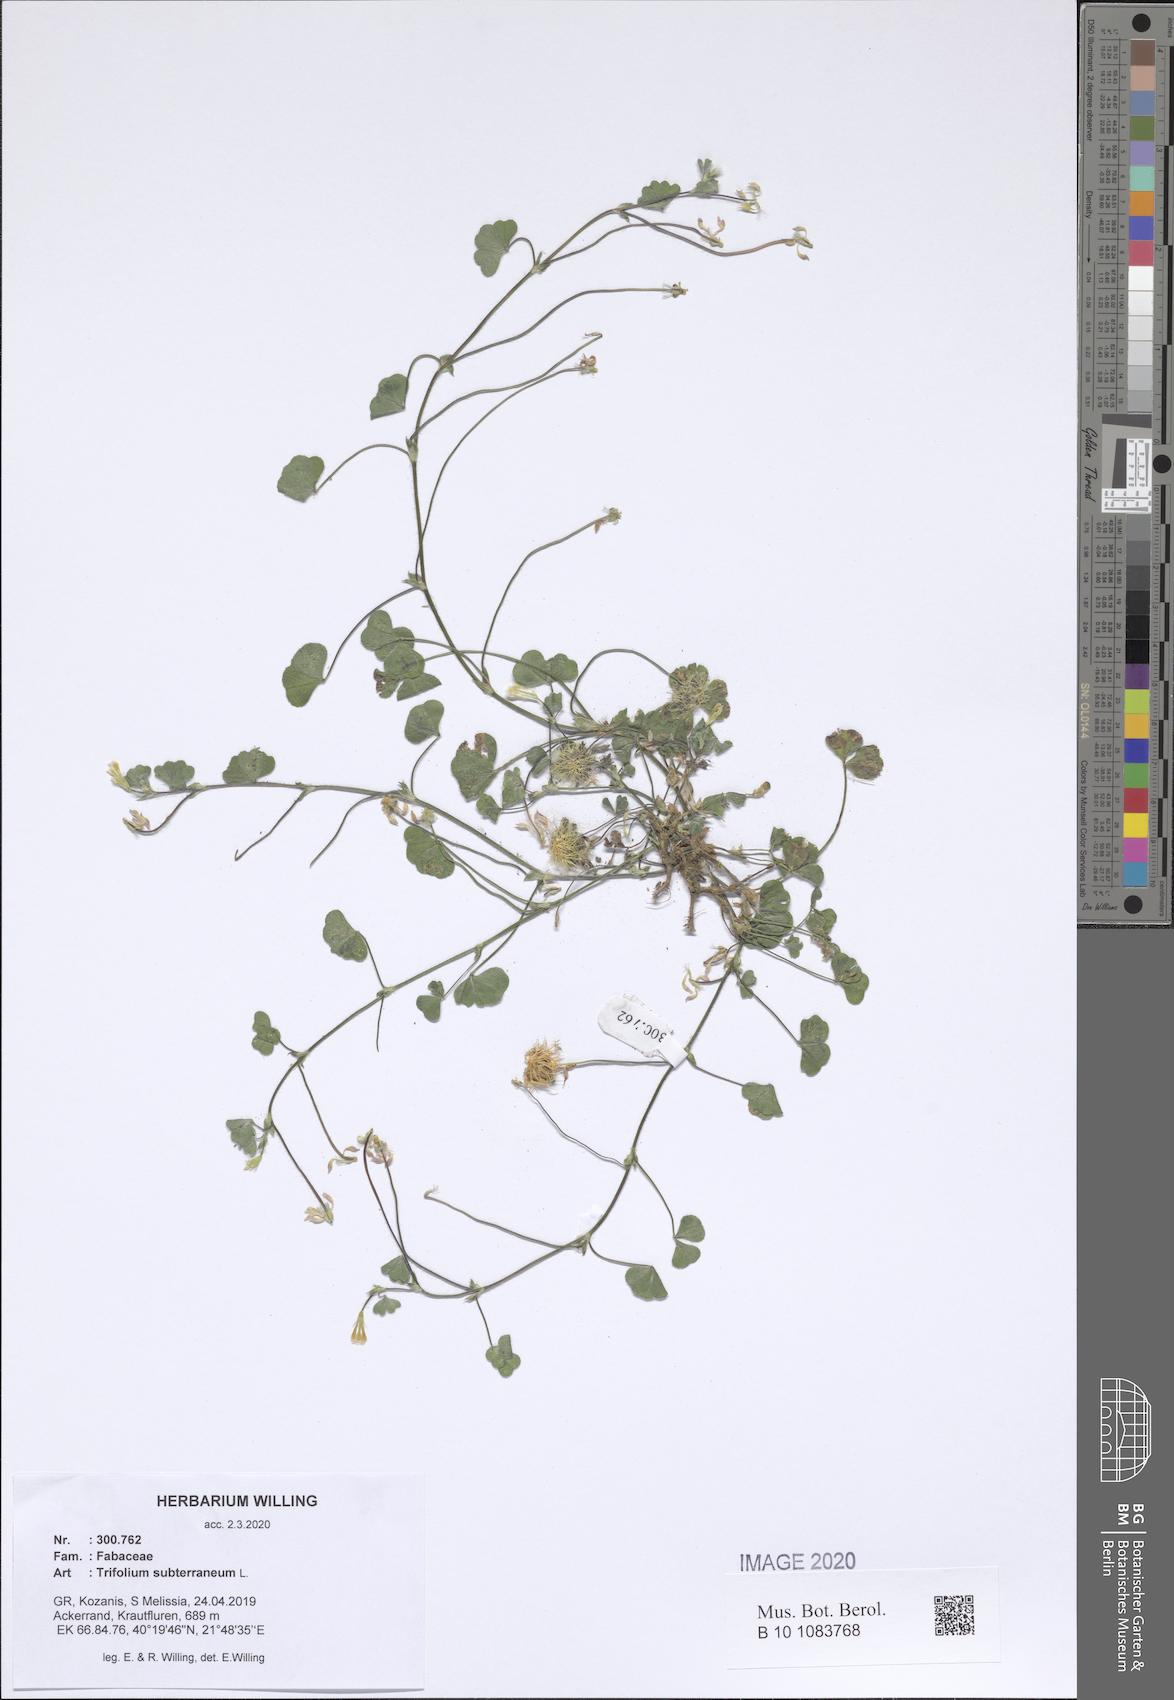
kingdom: Plantae
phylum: Tracheophyta
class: Magnoliopsida
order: Fabales
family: Fabaceae
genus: Trifolium
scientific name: Trifolium subterraneum
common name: Subterranean clover
